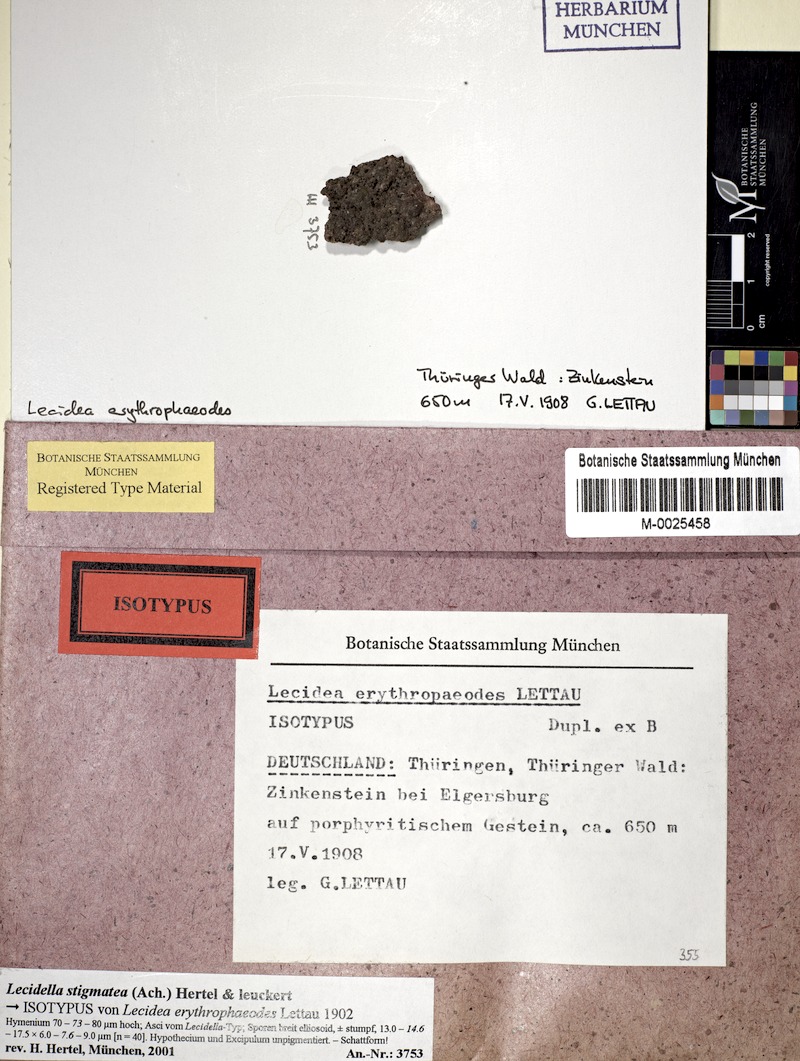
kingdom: Fungi
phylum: Ascomycota
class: Lecanoromycetes
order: Lecanorales
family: Lecanoraceae
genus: Lecidella
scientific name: Lecidella stigmatea
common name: Limestone disc lichen
